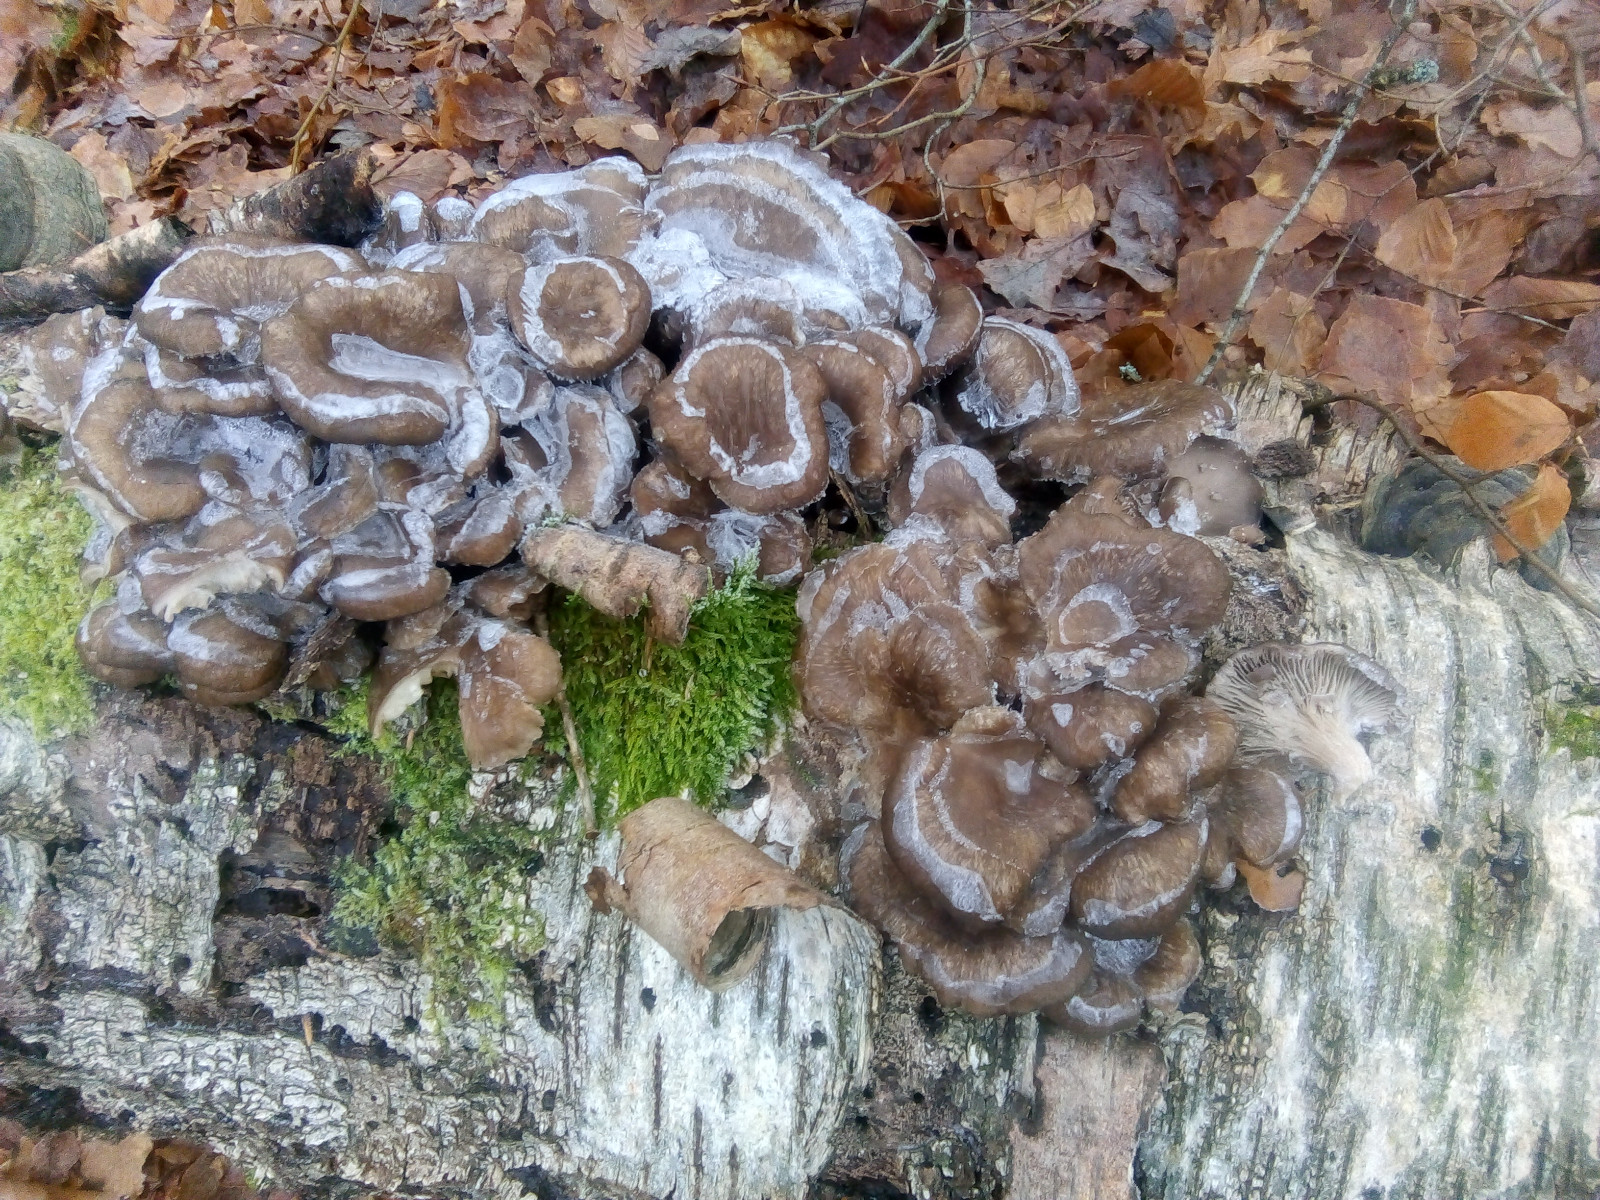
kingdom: Fungi
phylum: Basidiomycota
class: Agaricomycetes
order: Agaricales
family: Pleurotaceae
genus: Pleurotus
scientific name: Pleurotus ostreatus
